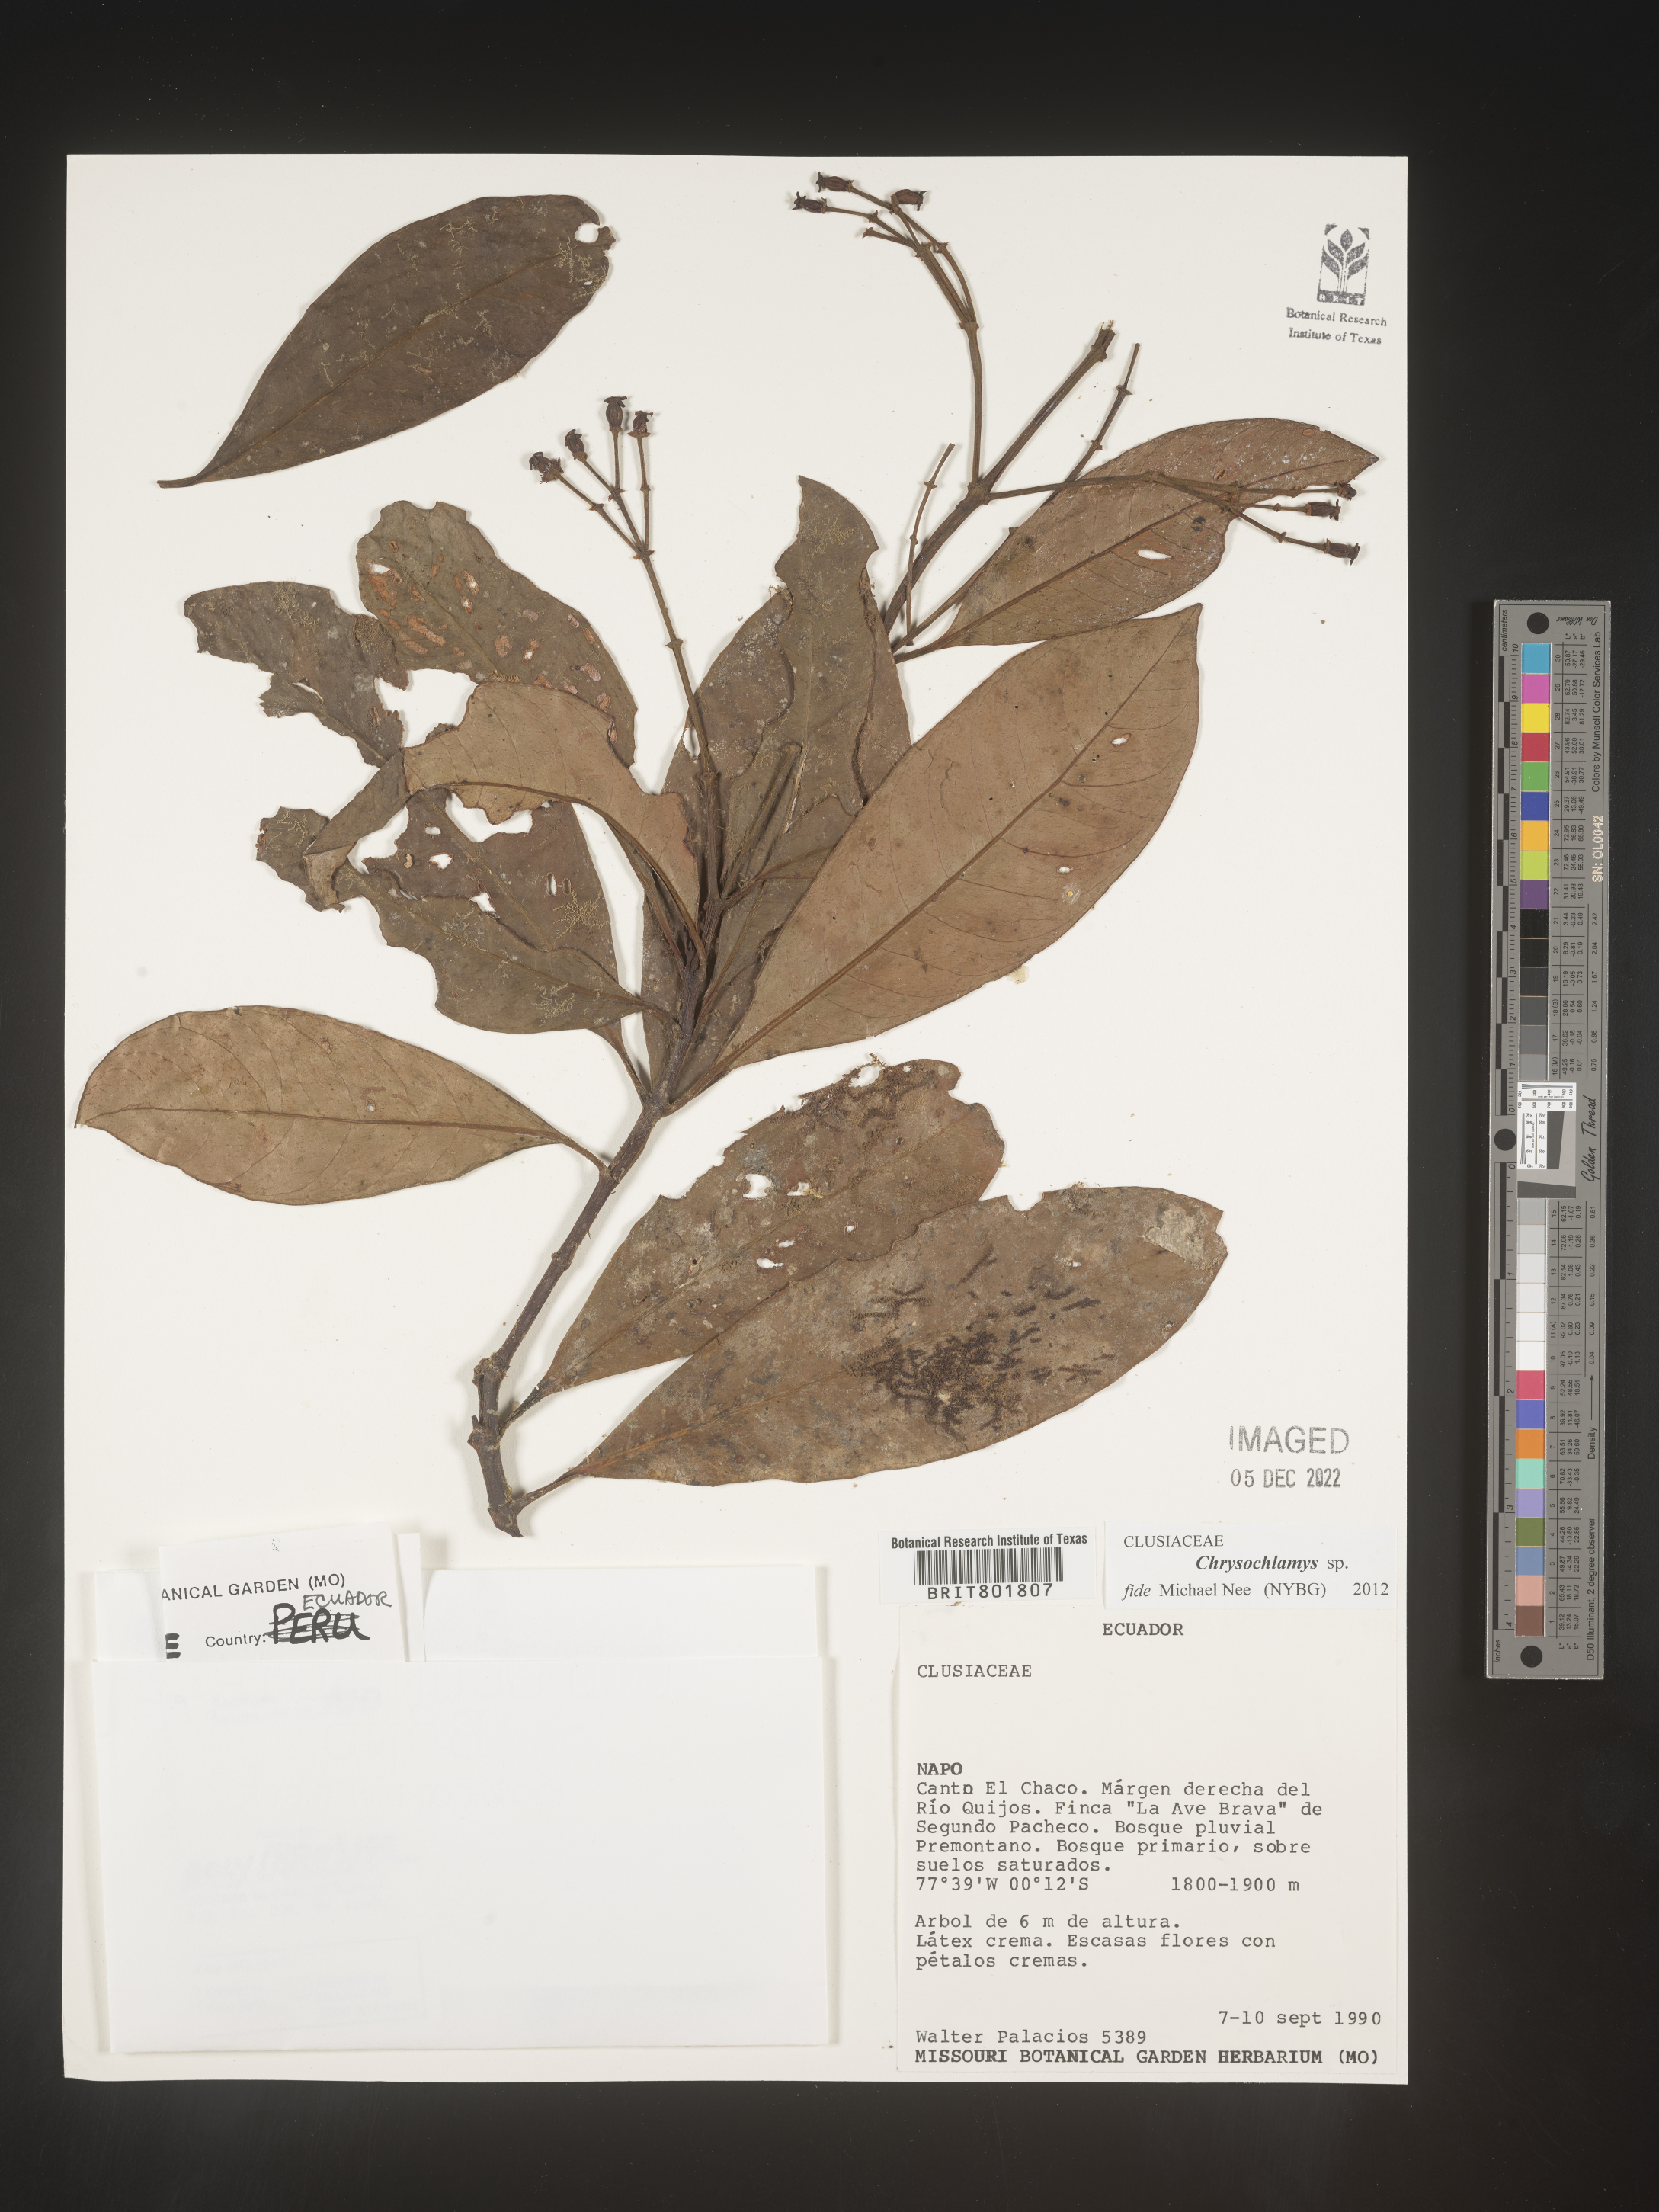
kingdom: Plantae
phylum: Tracheophyta
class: Magnoliopsida
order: Malpighiales
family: Clusiaceae
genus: Chrysochlamys
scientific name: Chrysochlamys
